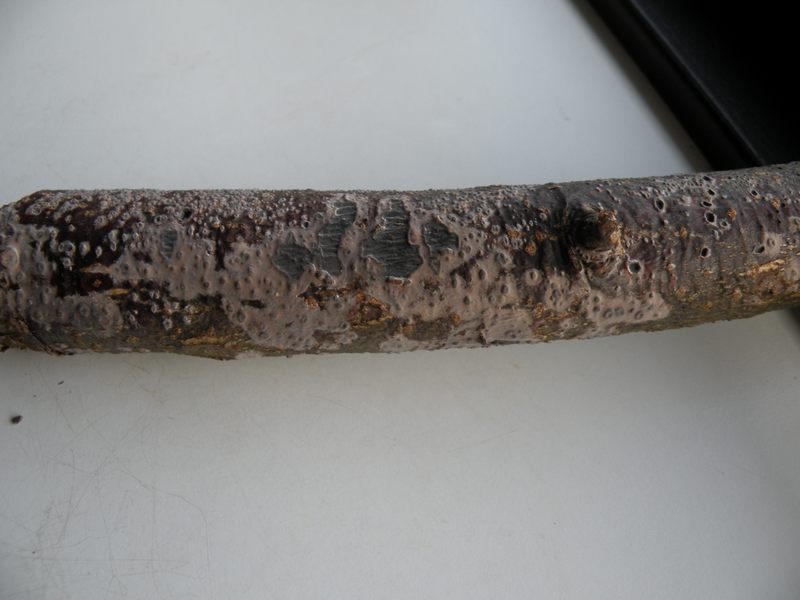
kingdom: Fungi
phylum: Basidiomycota
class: Agaricomycetes
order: Russulales
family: Peniophoraceae
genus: Peniophora
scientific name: Peniophora rufomarginata
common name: linde-voksskind
